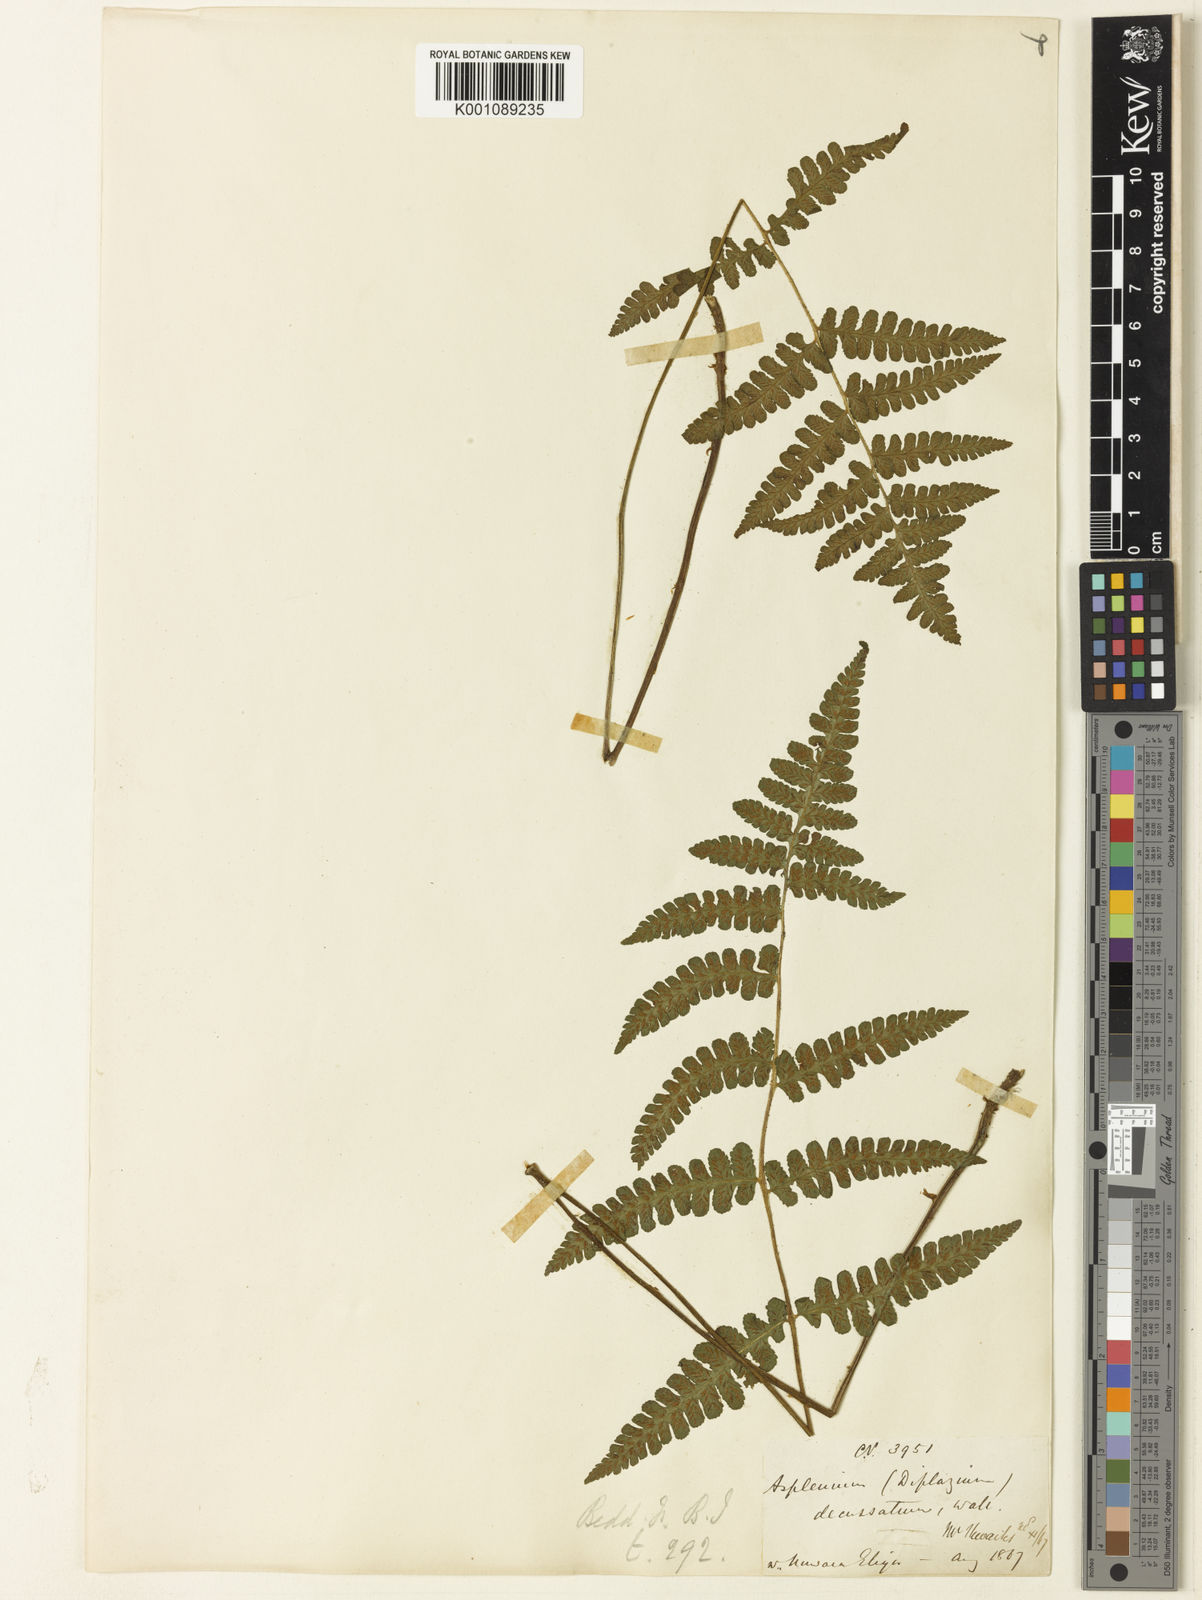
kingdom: Plantae
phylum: Tracheophyta
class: Polypodiopsida
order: Polypodiales
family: Athyriaceae
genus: Deparia
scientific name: Deparia
